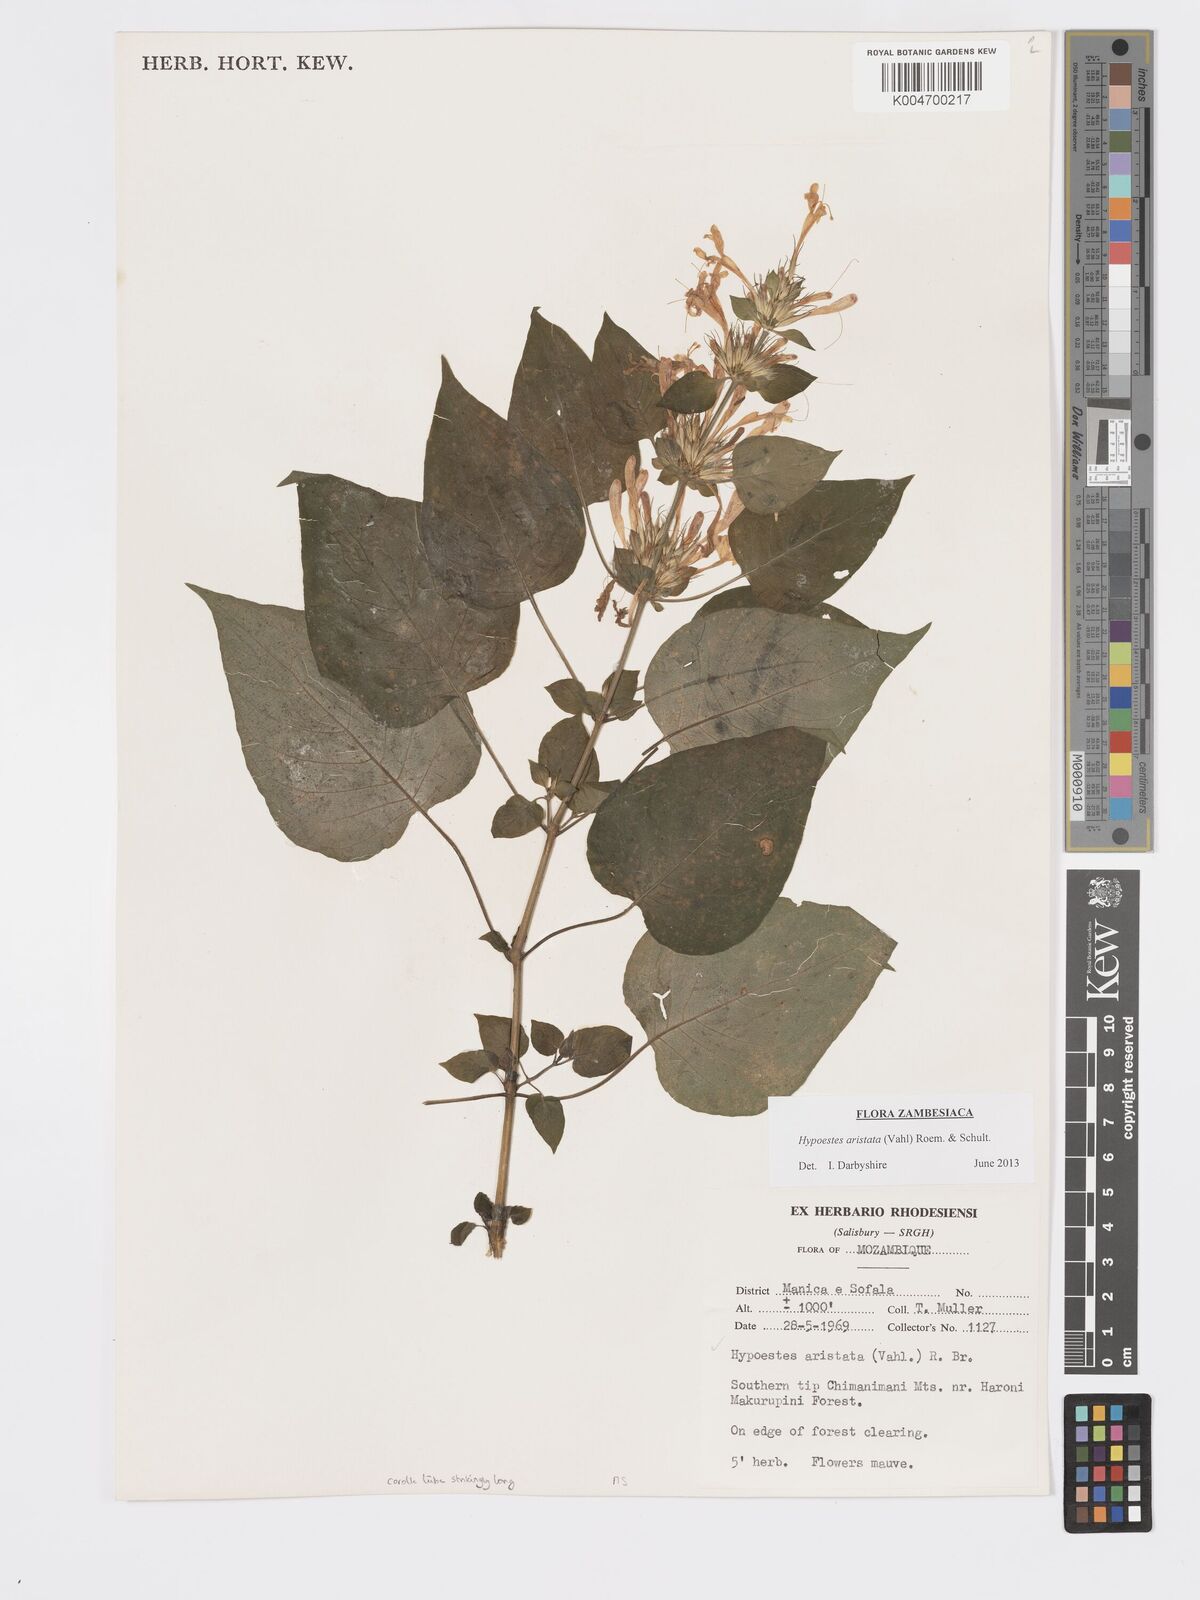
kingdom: Plantae
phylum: Tracheophyta
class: Magnoliopsida
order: Lamiales
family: Acanthaceae
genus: Hypoestes
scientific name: Hypoestes aristata
